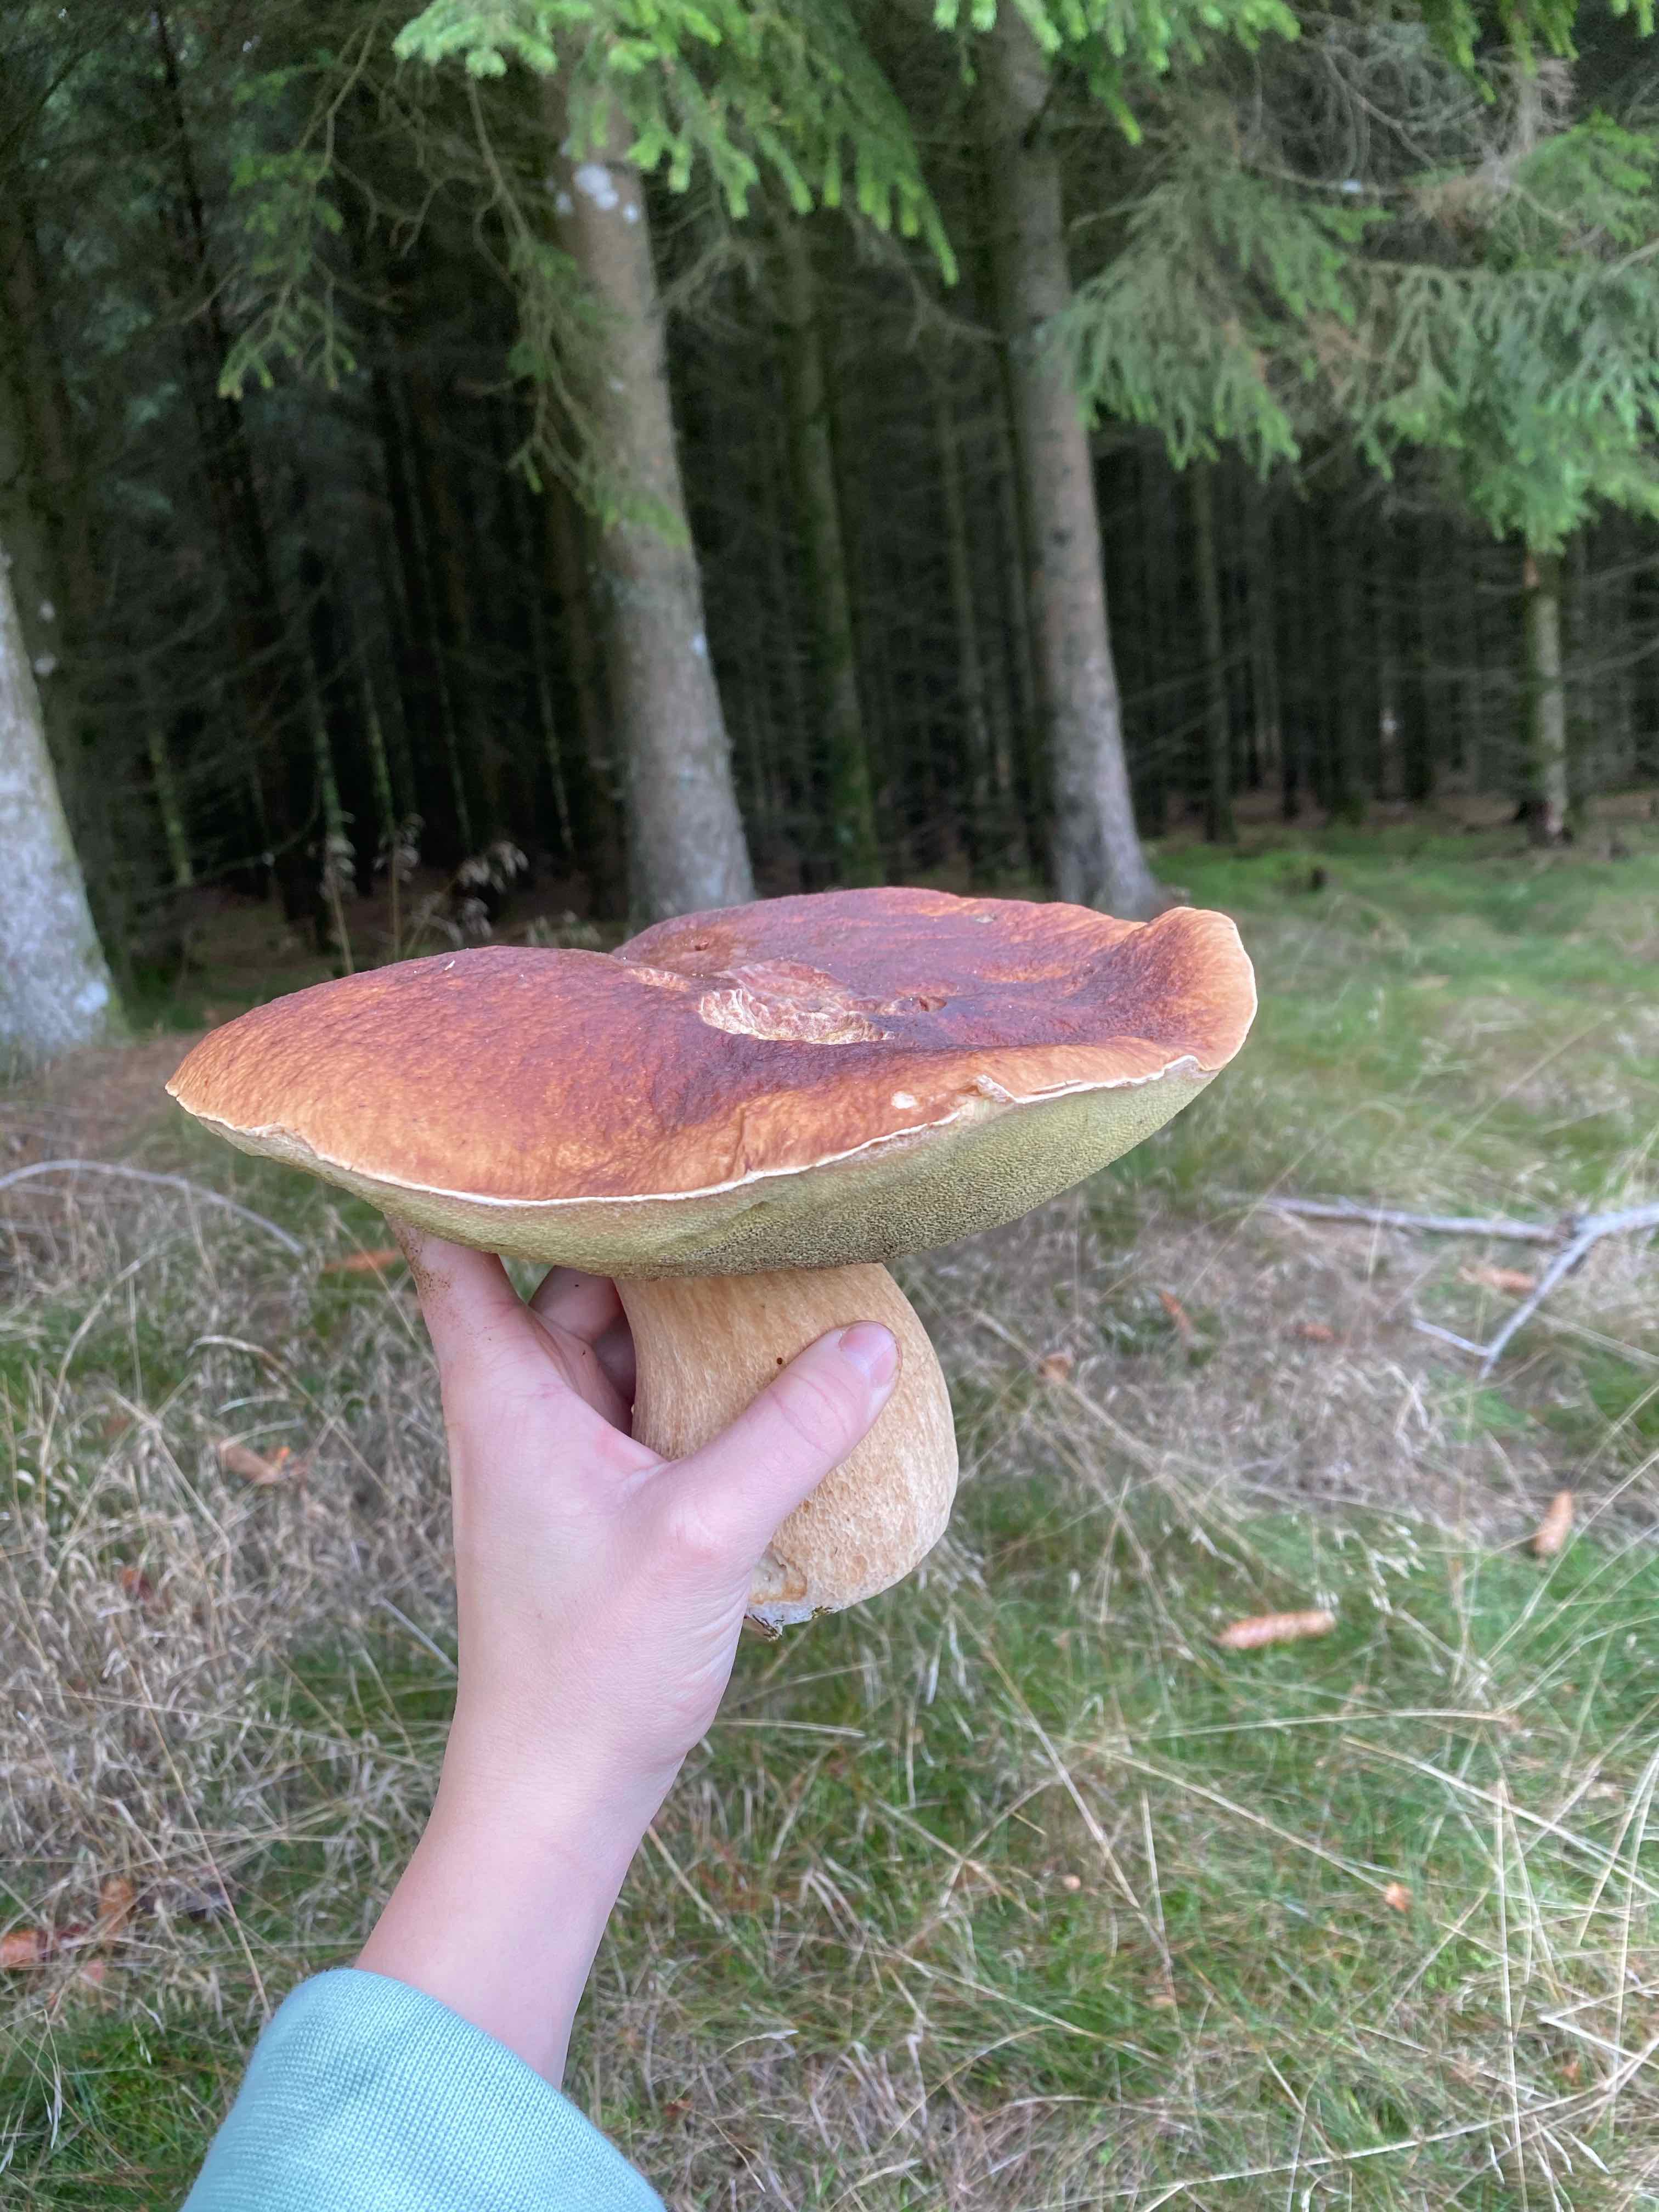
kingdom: Fungi
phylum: Basidiomycota
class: Agaricomycetes
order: Boletales
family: Boletaceae
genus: Boletus
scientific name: Boletus edulis
